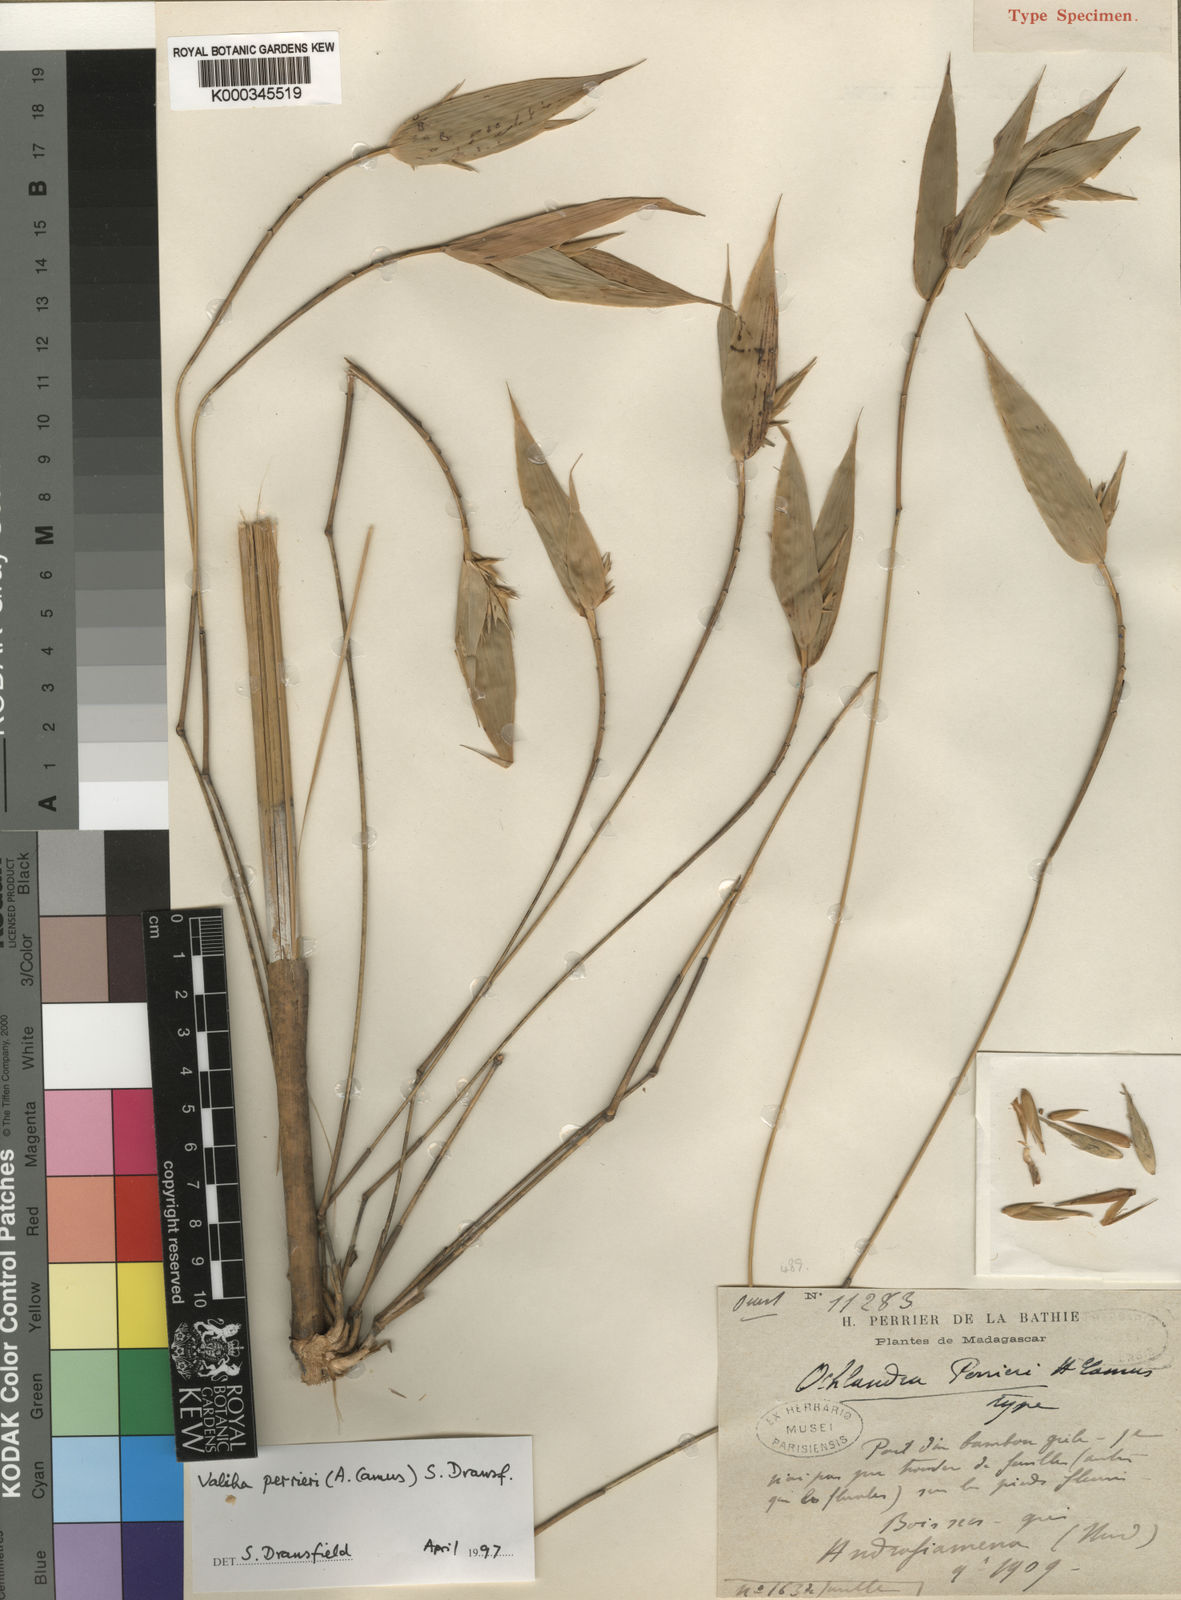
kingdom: Plantae
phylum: Tracheophyta
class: Liliopsida
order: Poales
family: Poaceae
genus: Valiha
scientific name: Valiha perrieri
